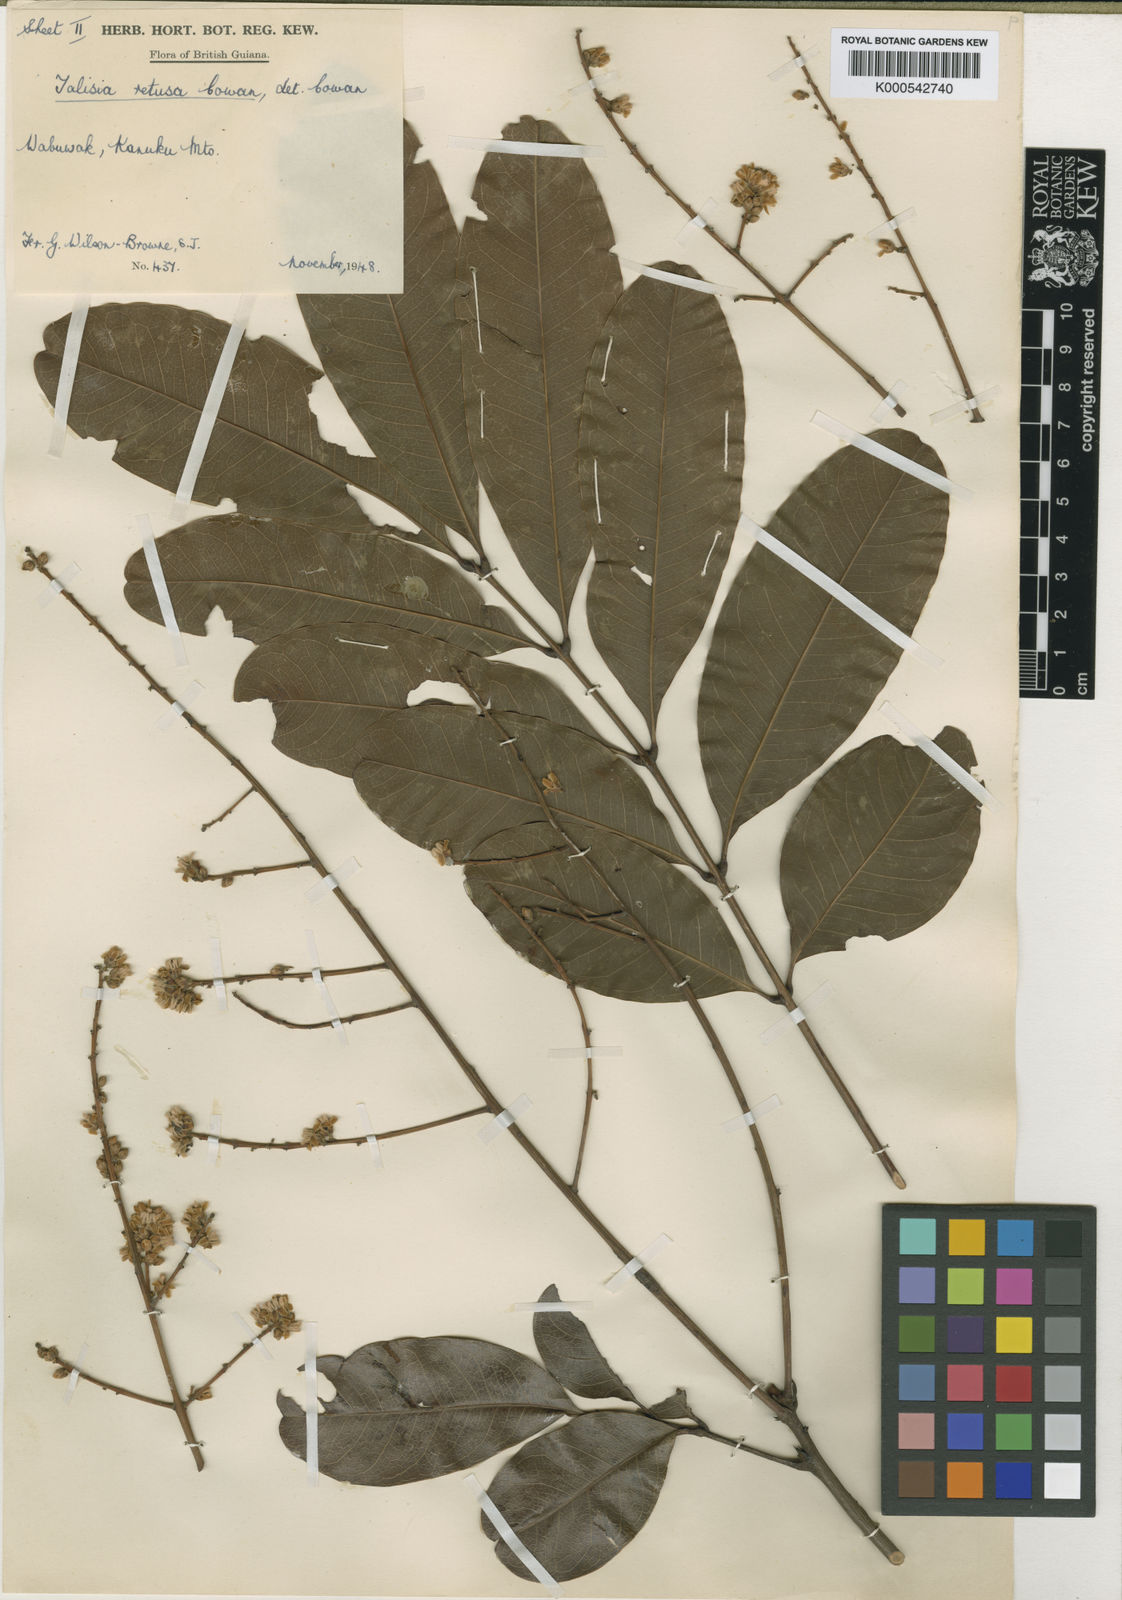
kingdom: Plantae
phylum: Tracheophyta
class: Magnoliopsida
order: Sapindales
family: Sapindaceae
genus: Talisia
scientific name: Talisia retusa
